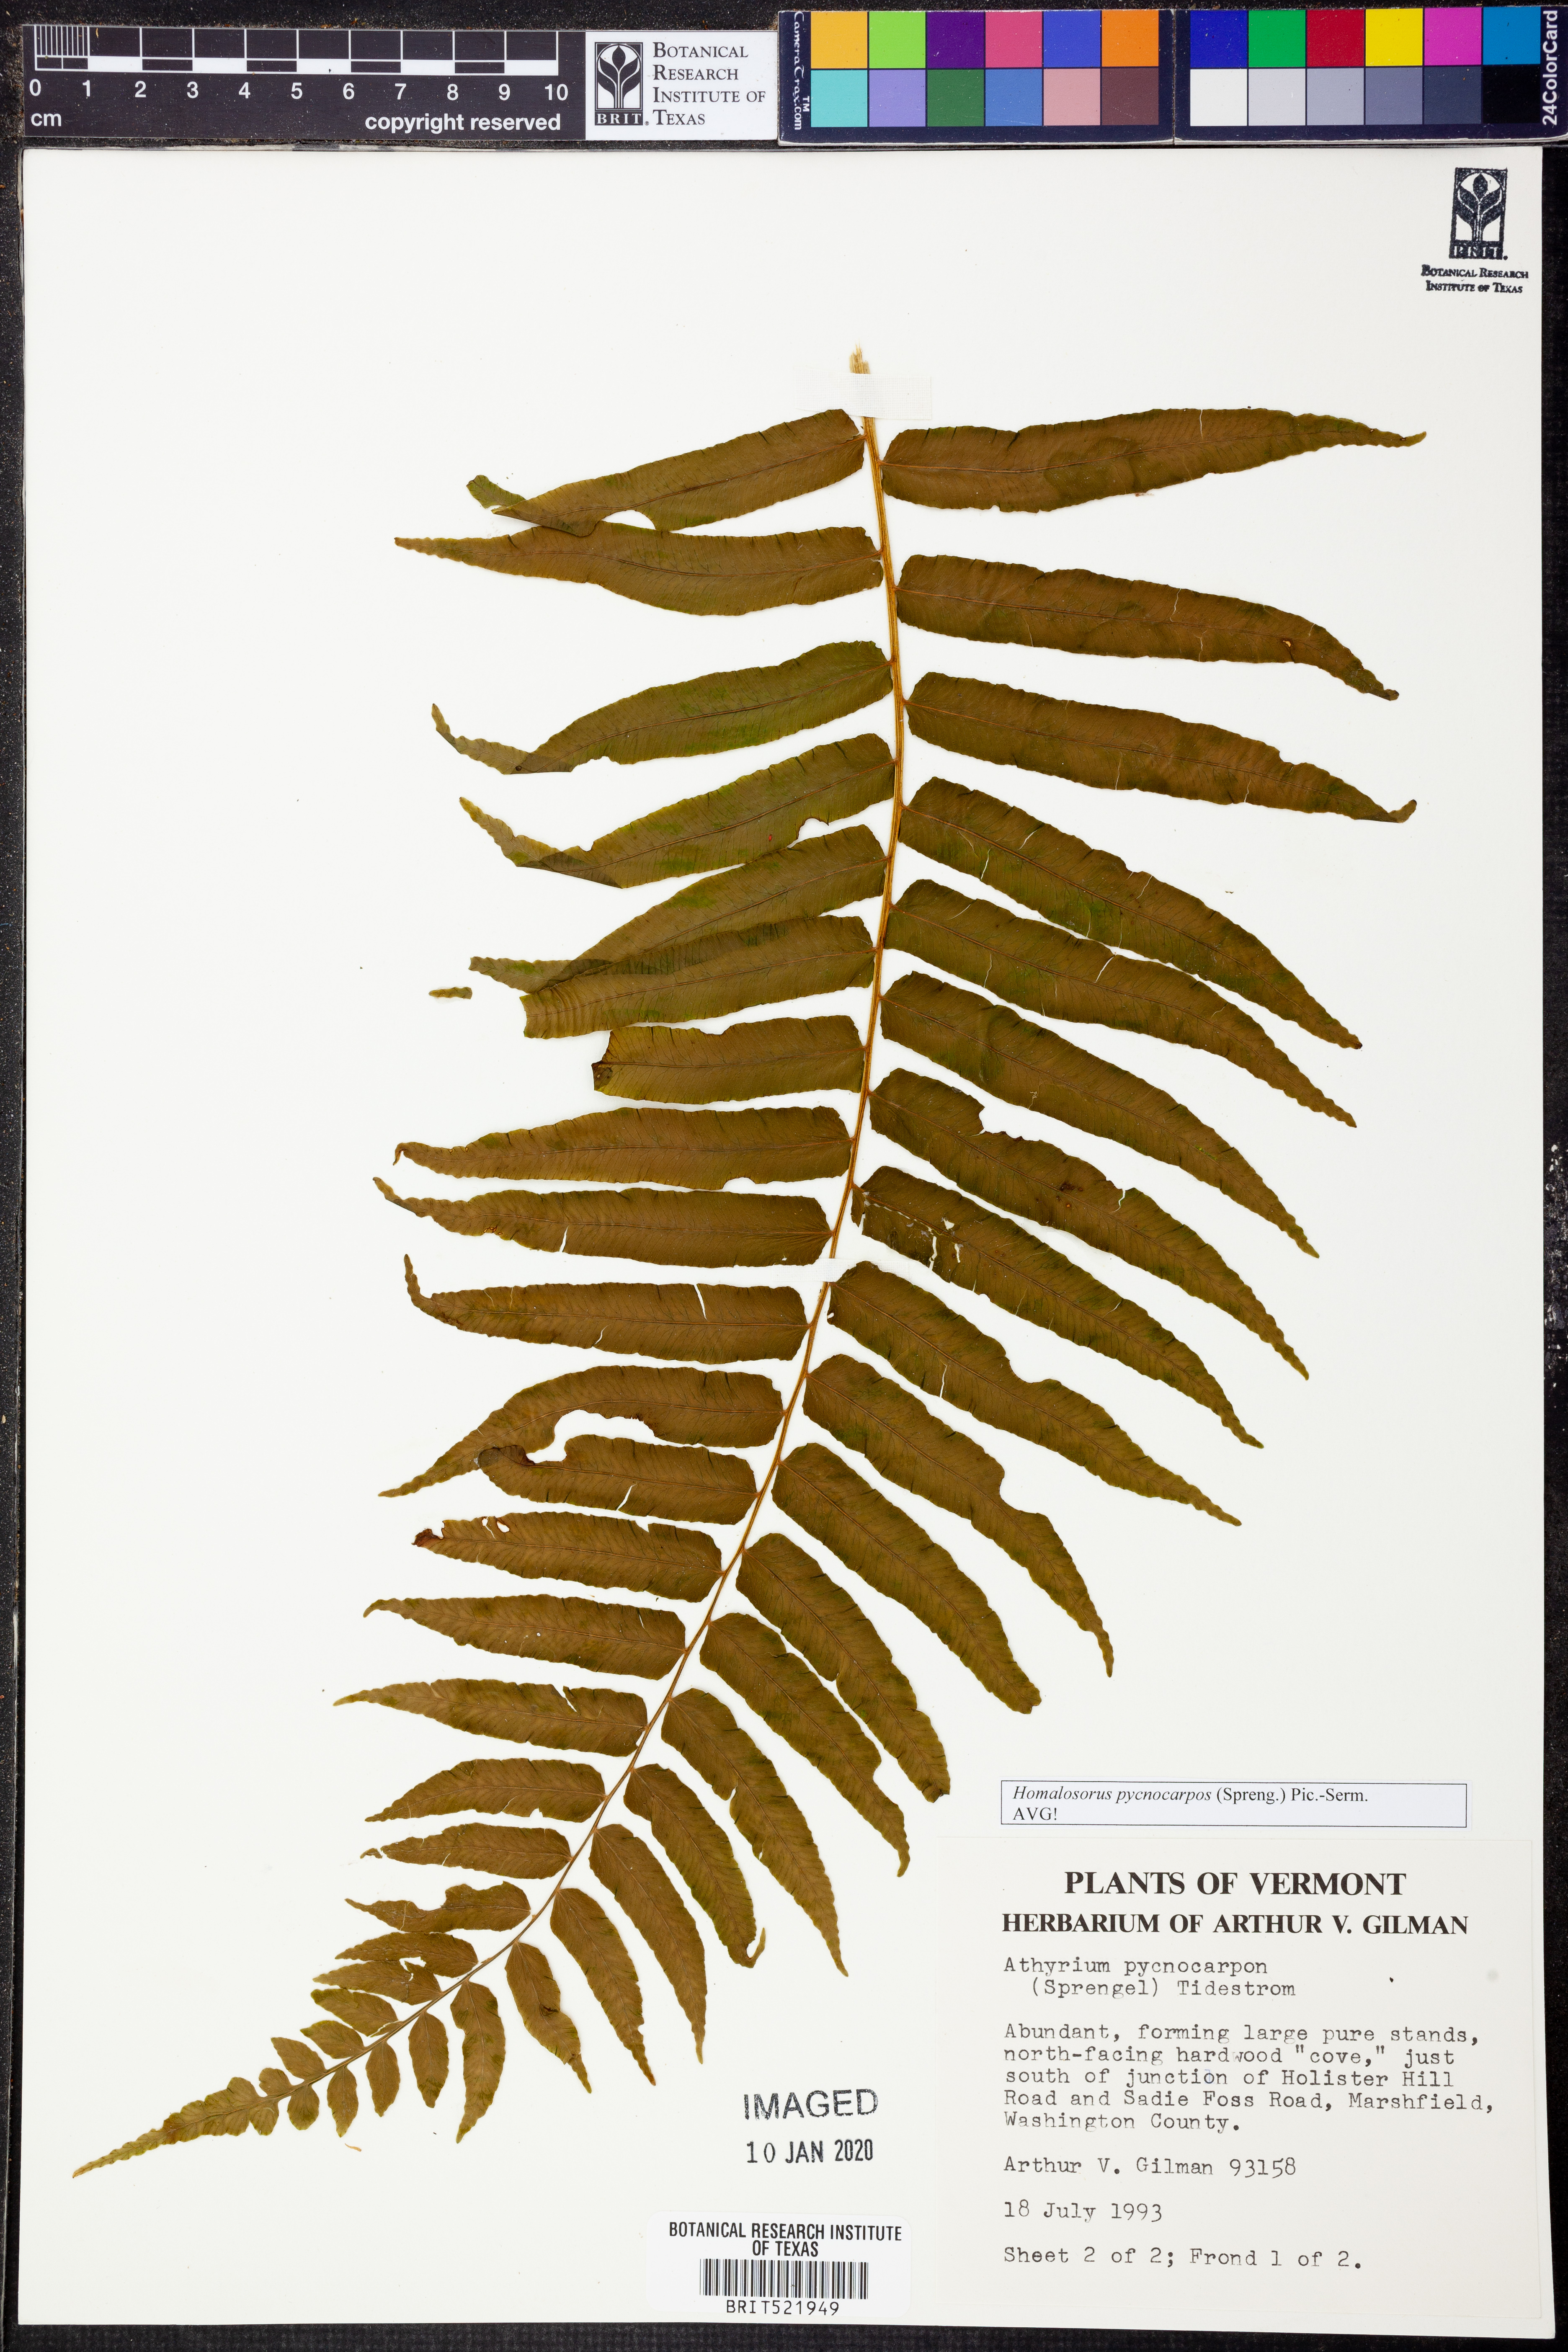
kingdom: Plantae
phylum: Tracheophyta
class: Polypodiopsida
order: Polypodiales
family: Diplaziopsidaceae
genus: Homalosorus
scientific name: Homalosorus pycnocarpos
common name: Glade fern
